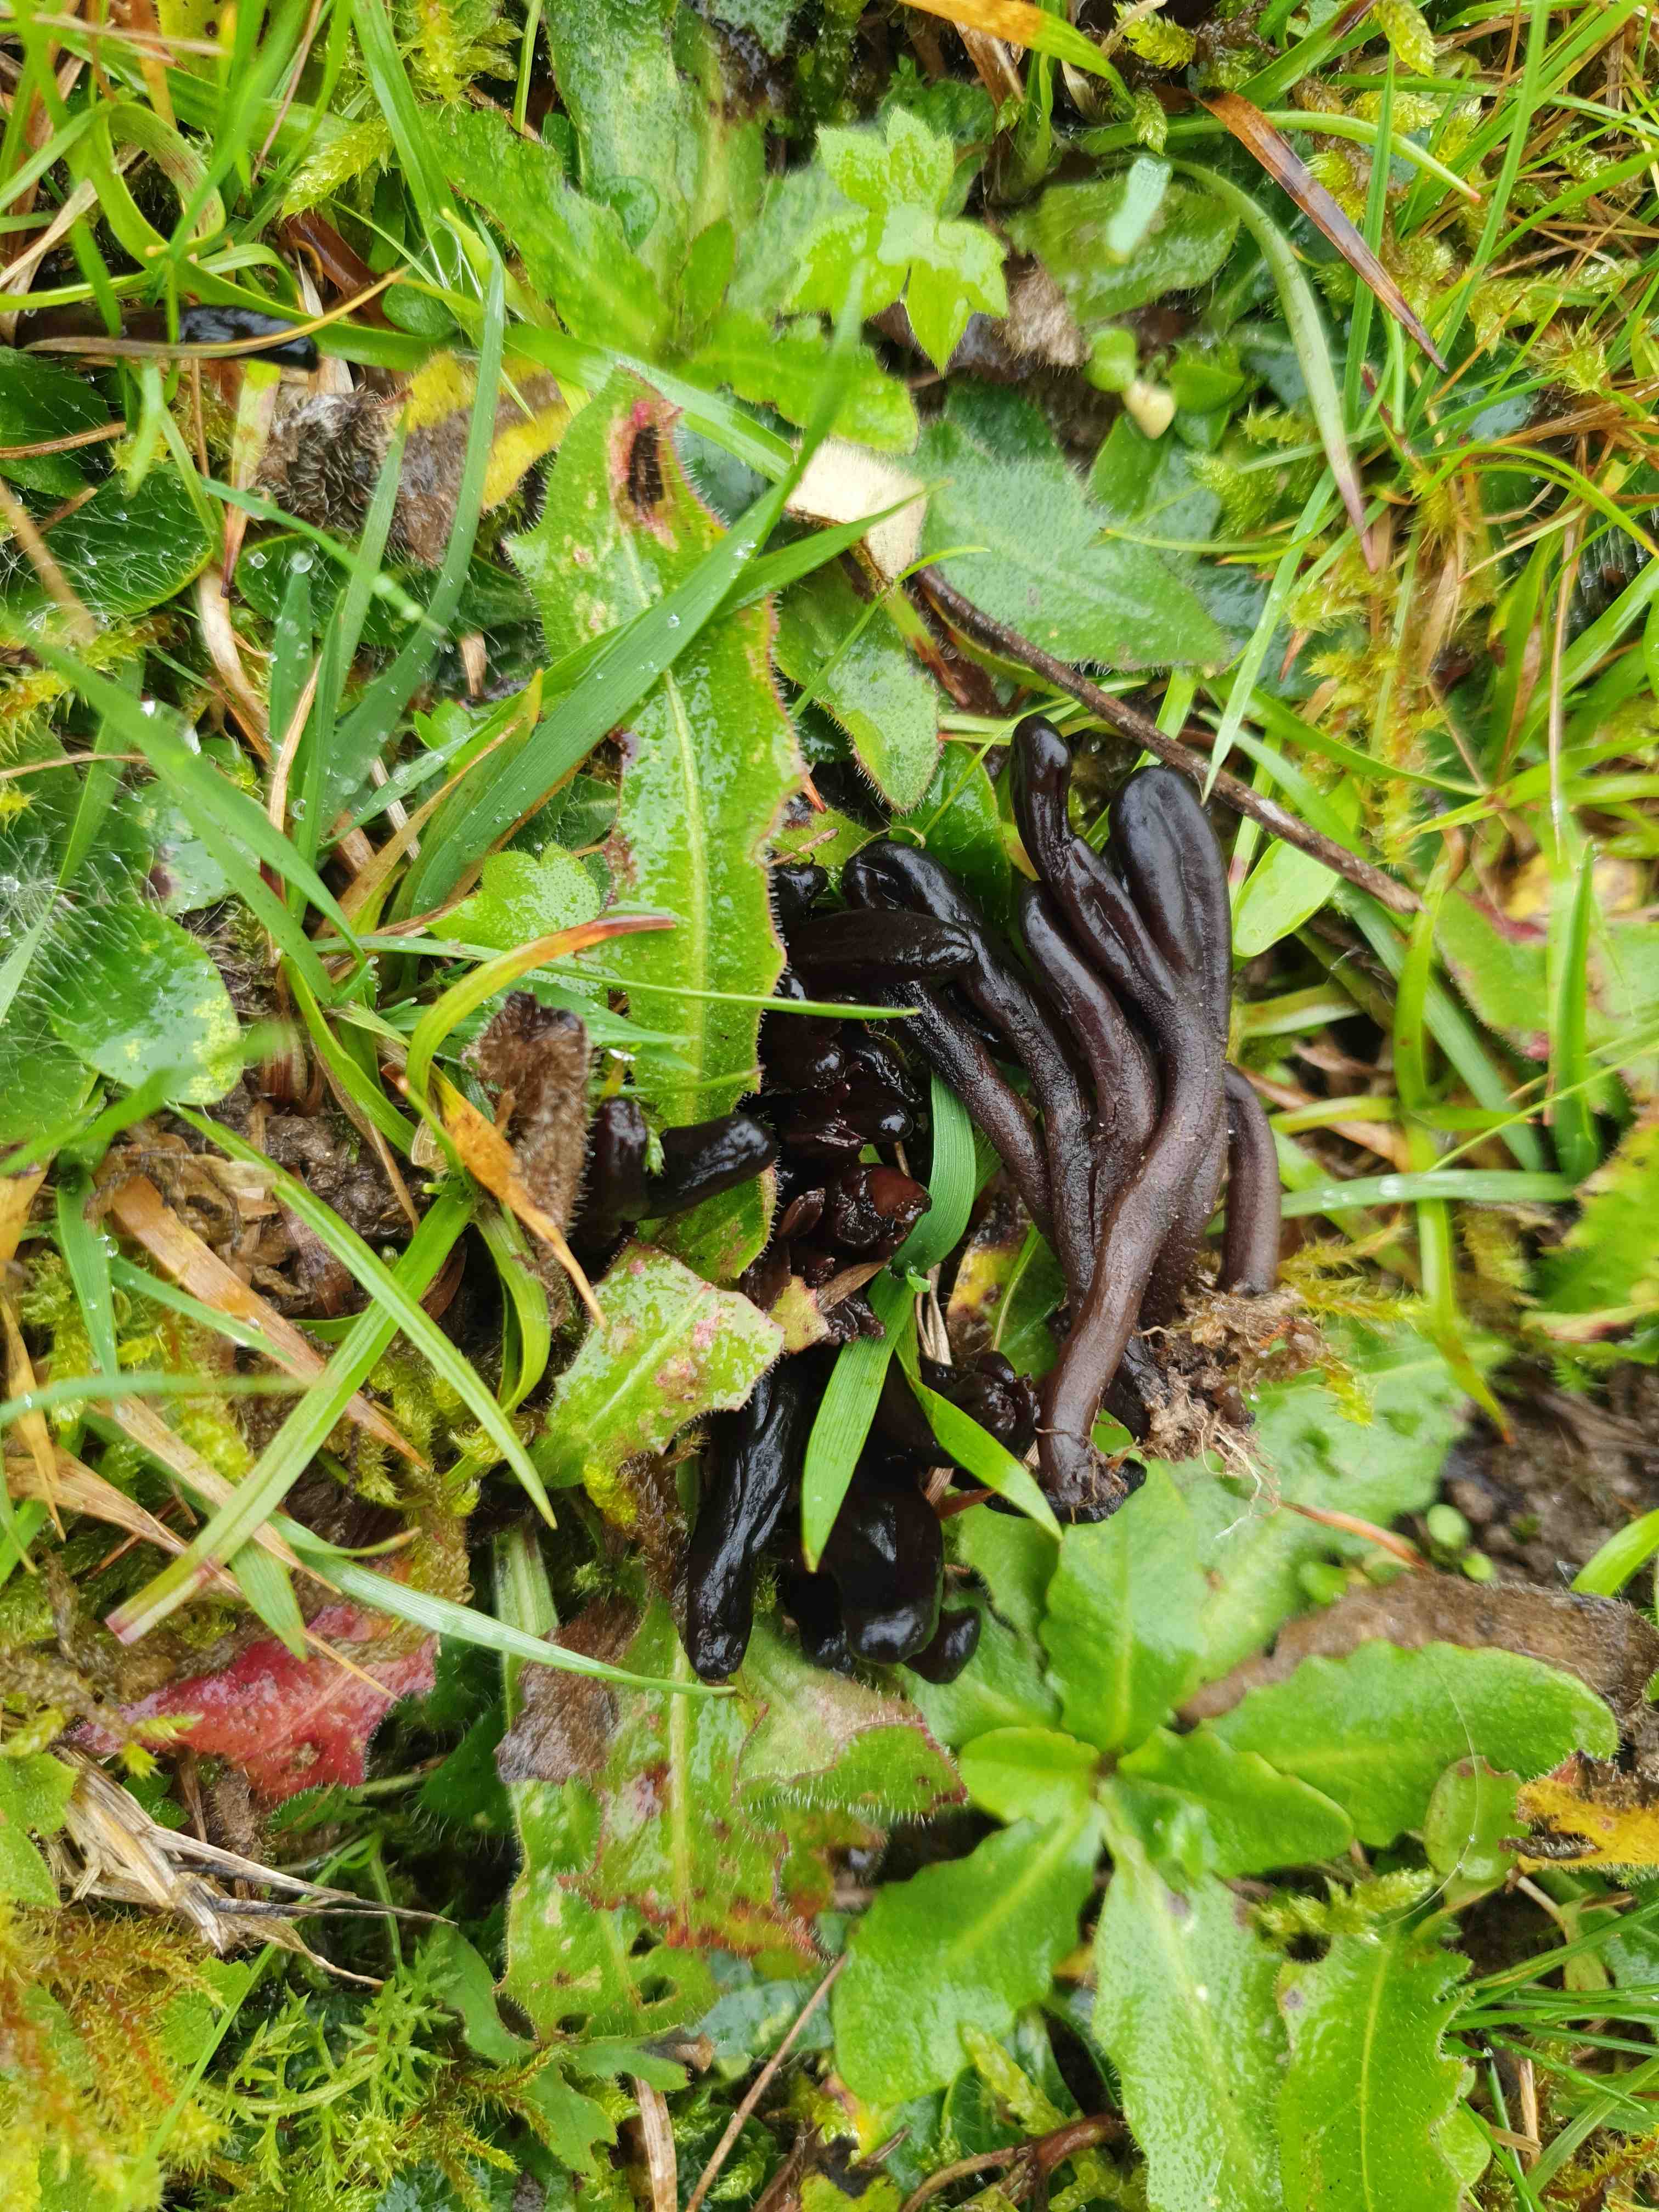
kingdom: Fungi
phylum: Ascomycota
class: Geoglossomycetes
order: Geoglossales
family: Geoglossaceae
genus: Geoglossum
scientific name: Geoglossum atropurpureum
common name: purpursort farvetunge
